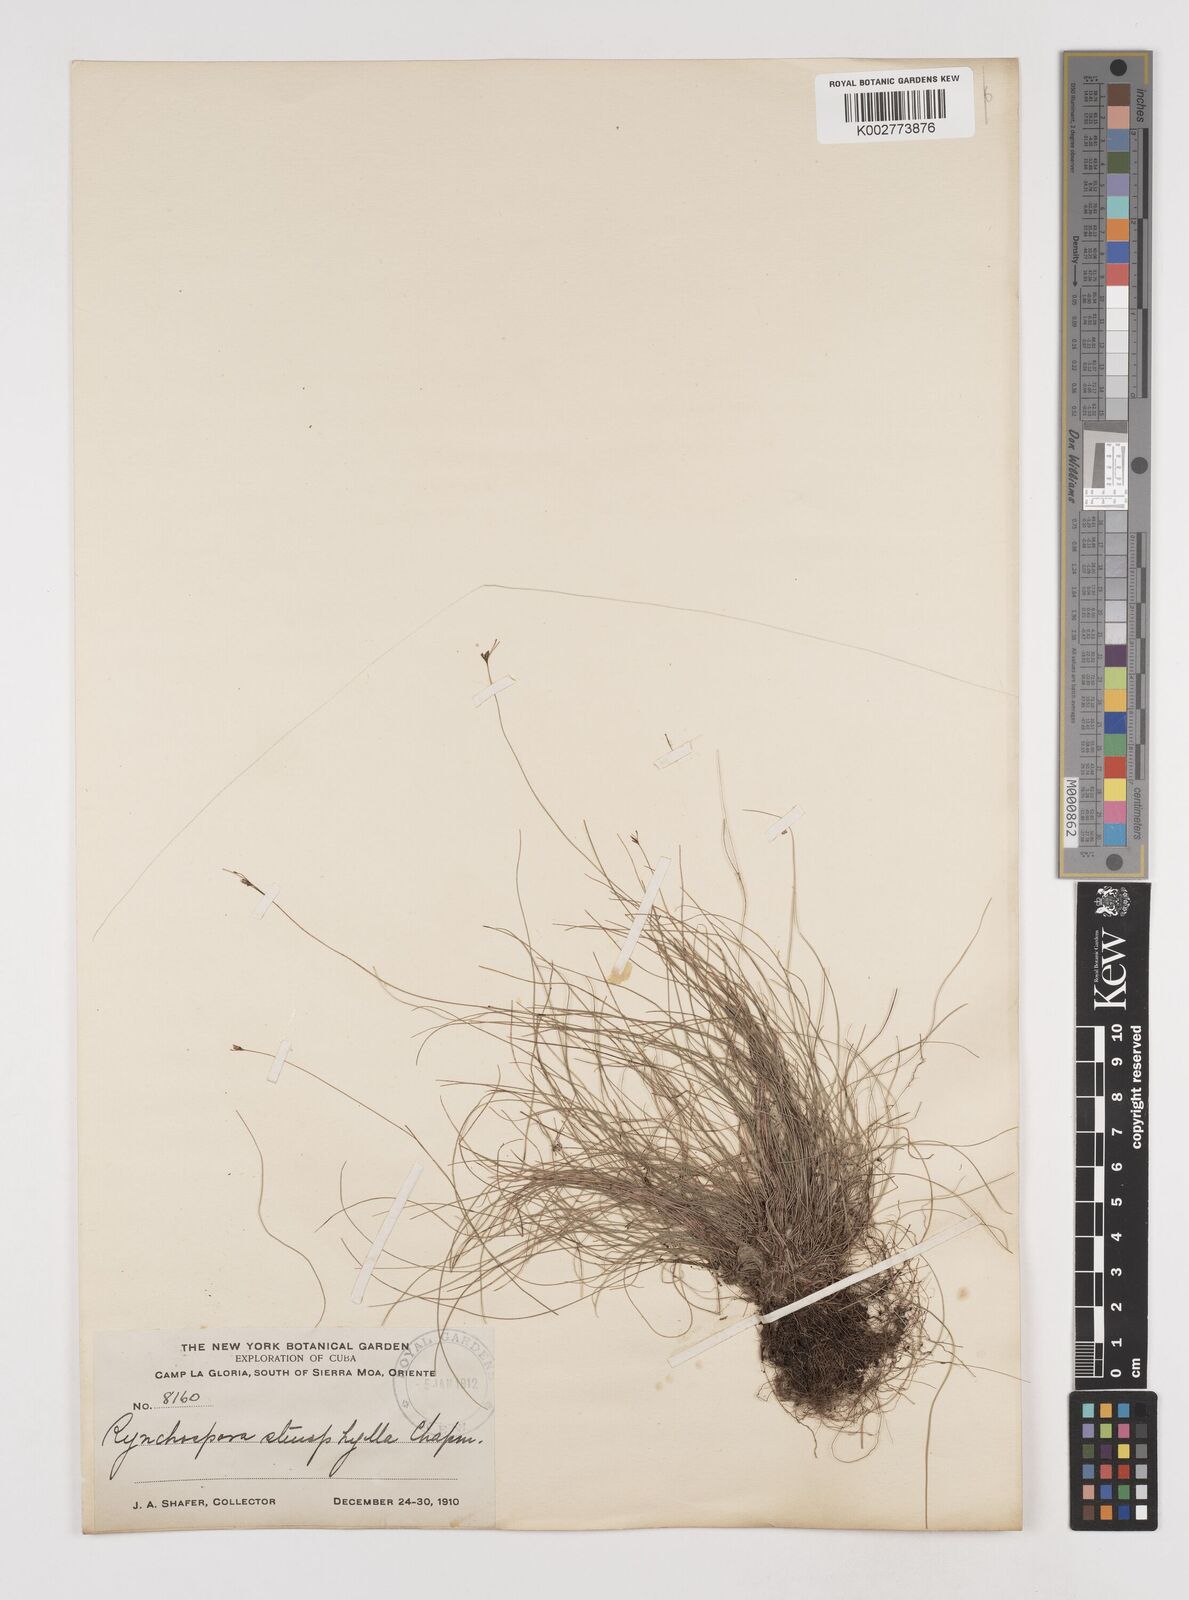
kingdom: Plantae
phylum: Tracheophyta
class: Liliopsida
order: Poales
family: Cyperaceae
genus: Rhynchospora
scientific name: Rhynchospora stenophylla
